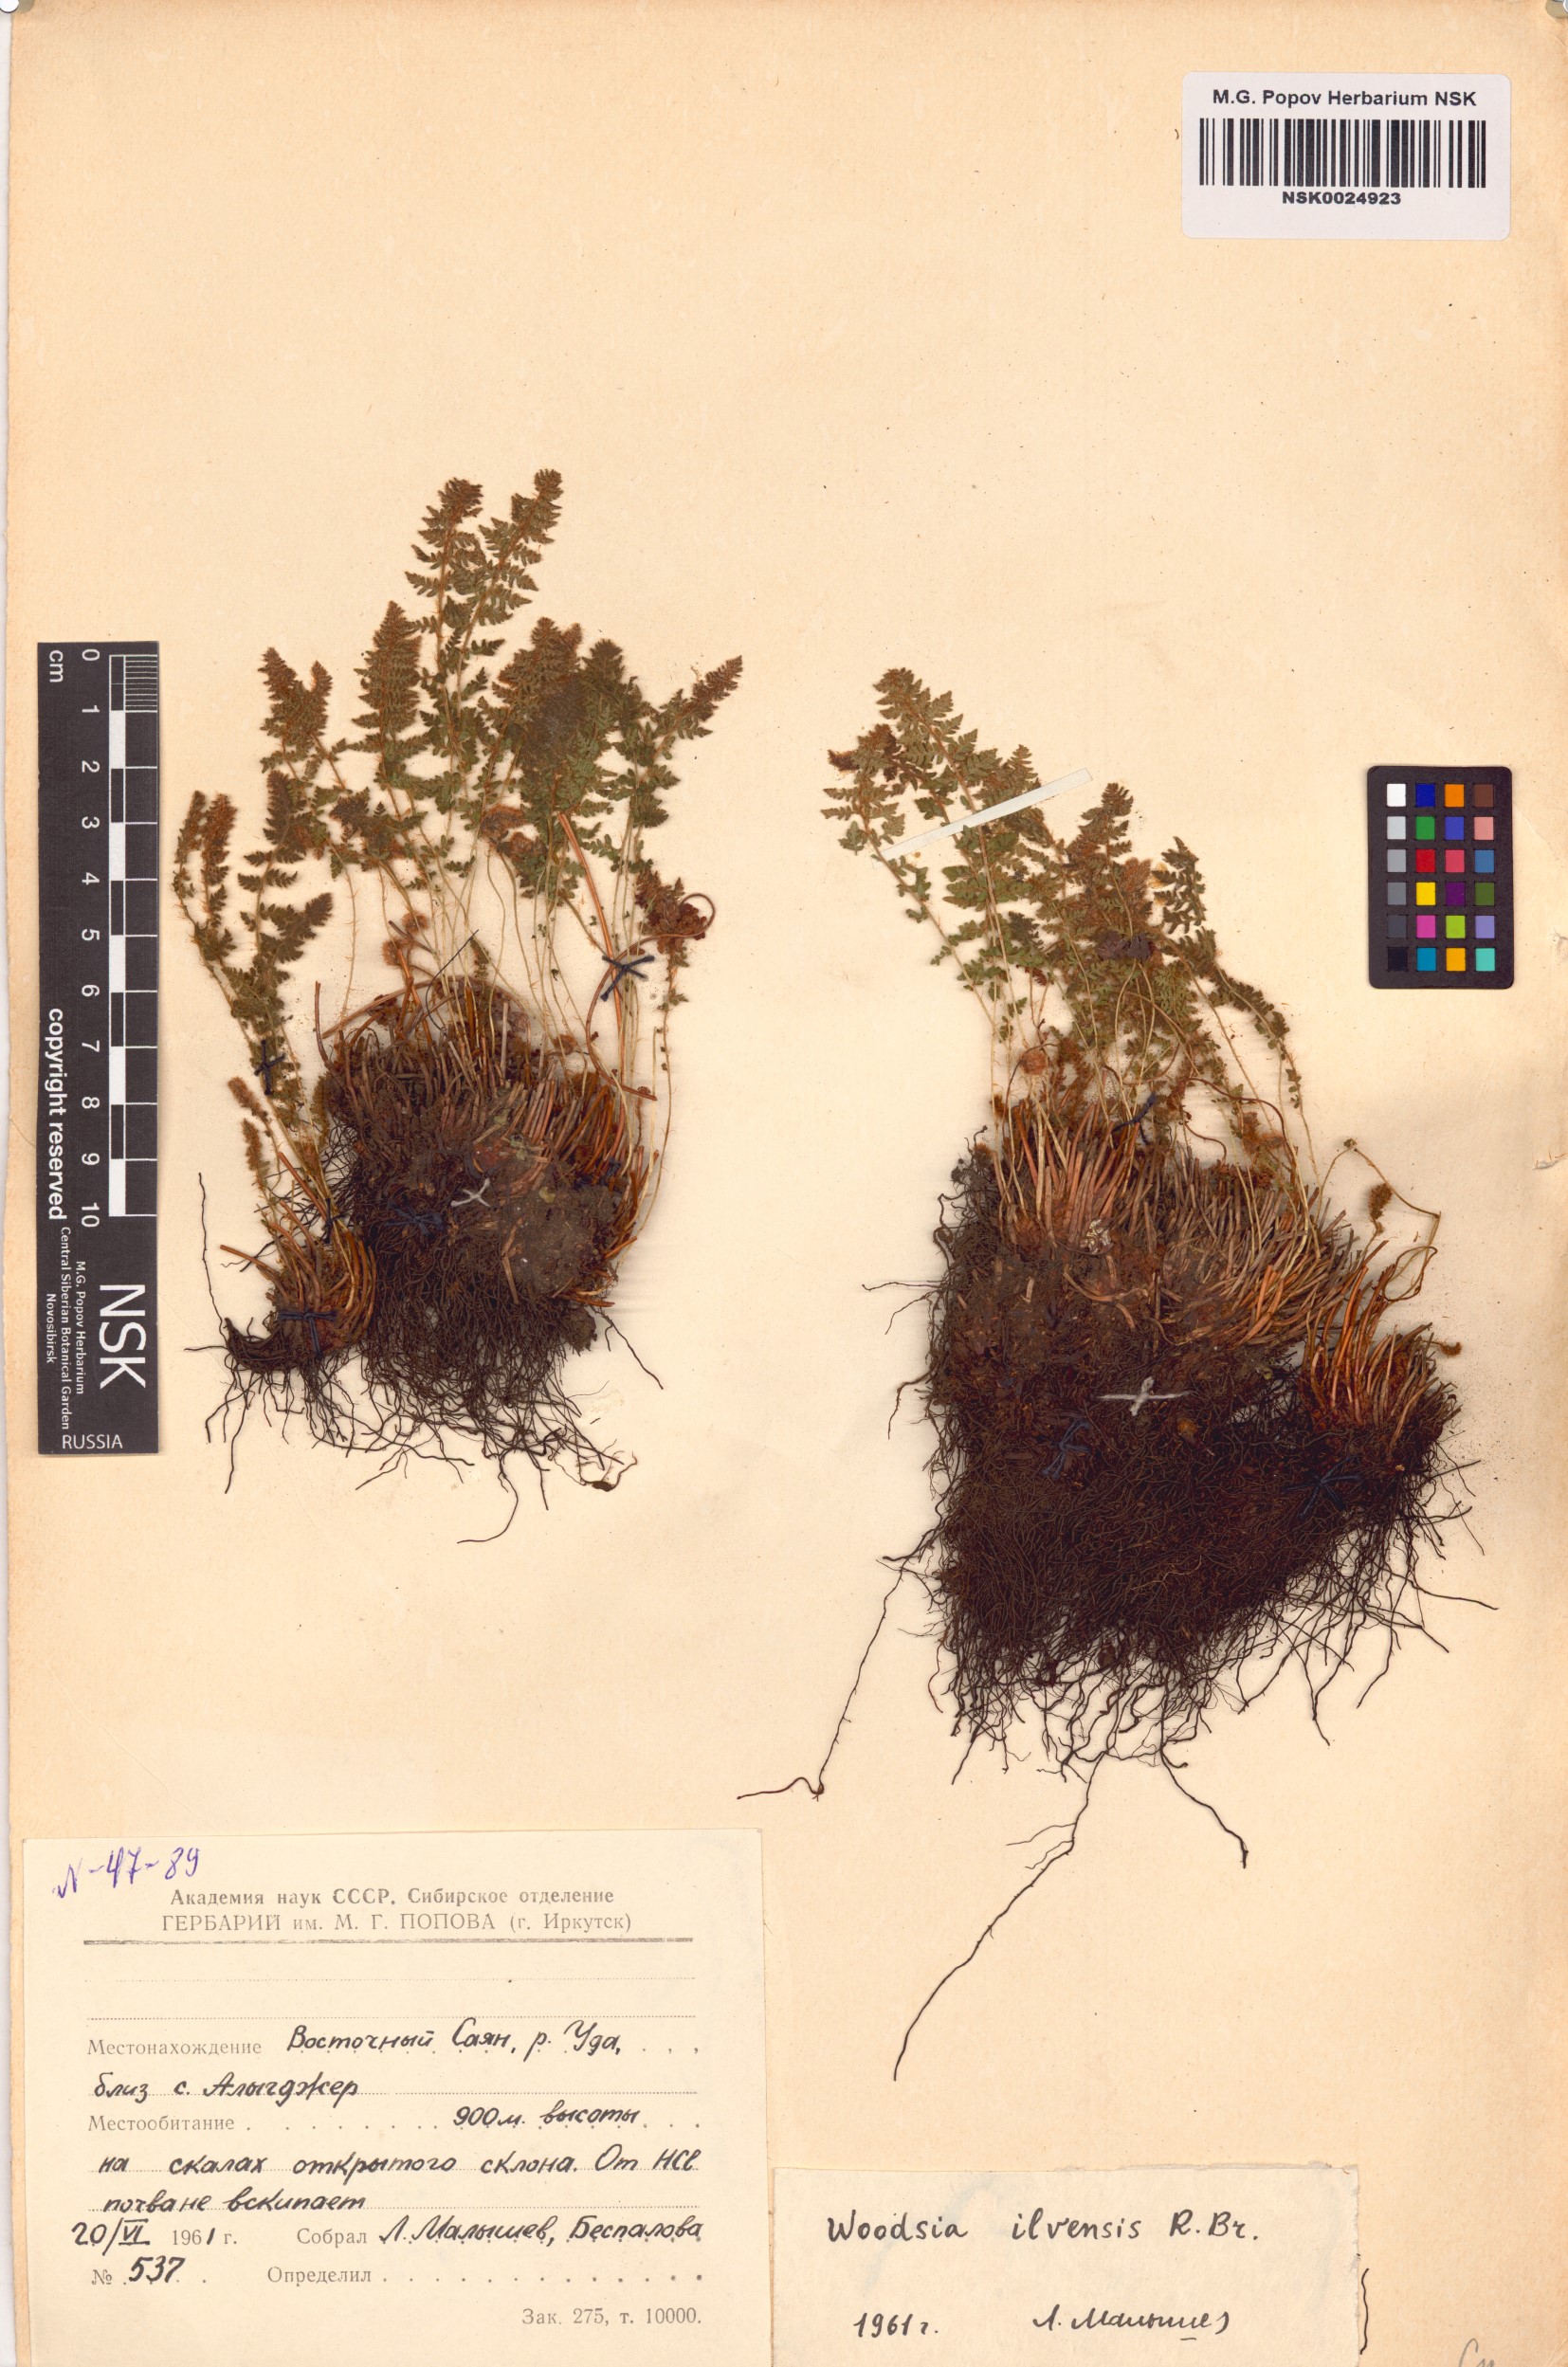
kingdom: Plantae
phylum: Tracheophyta
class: Polypodiopsida
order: Polypodiales
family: Woodsiaceae
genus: Woodsia
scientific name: Woodsia ilvensis
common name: Fragrant woodsia
